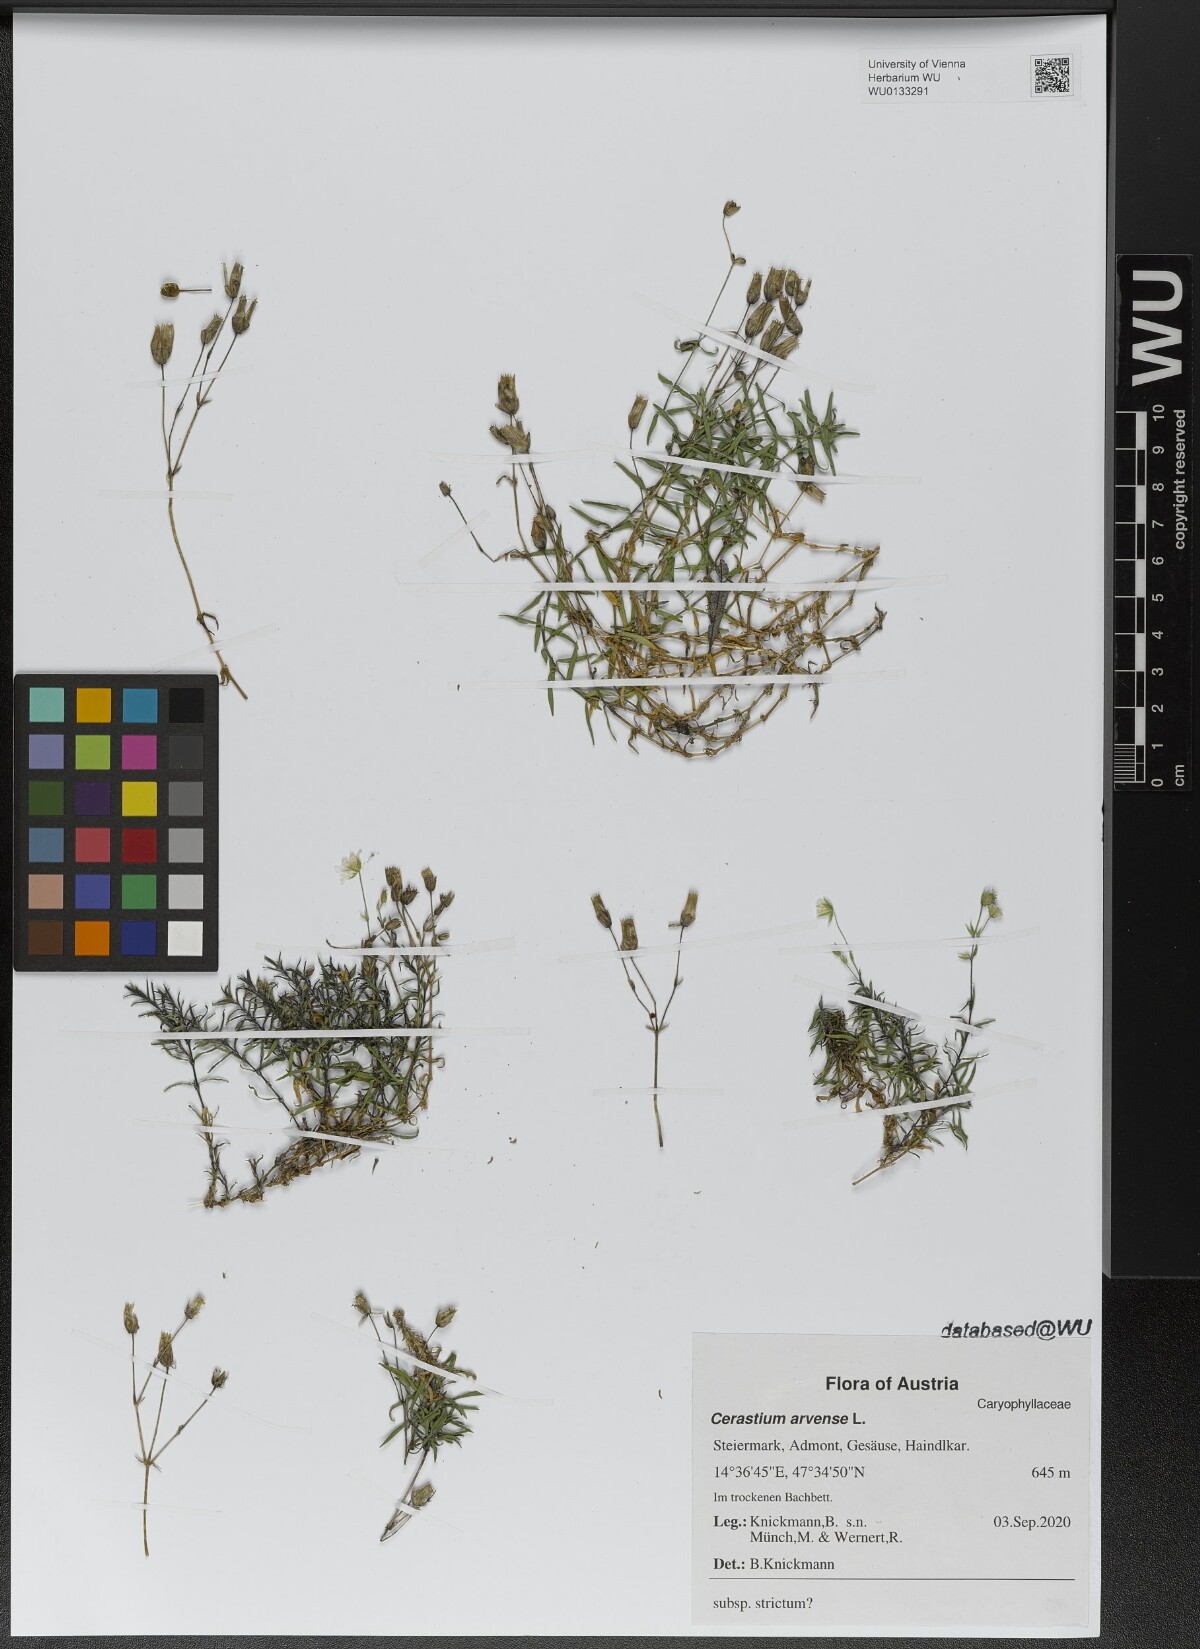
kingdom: Plantae
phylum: Tracheophyta
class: Magnoliopsida
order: Caryophyllales
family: Caryophyllaceae
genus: Cerastium
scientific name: Cerastium elongatum
